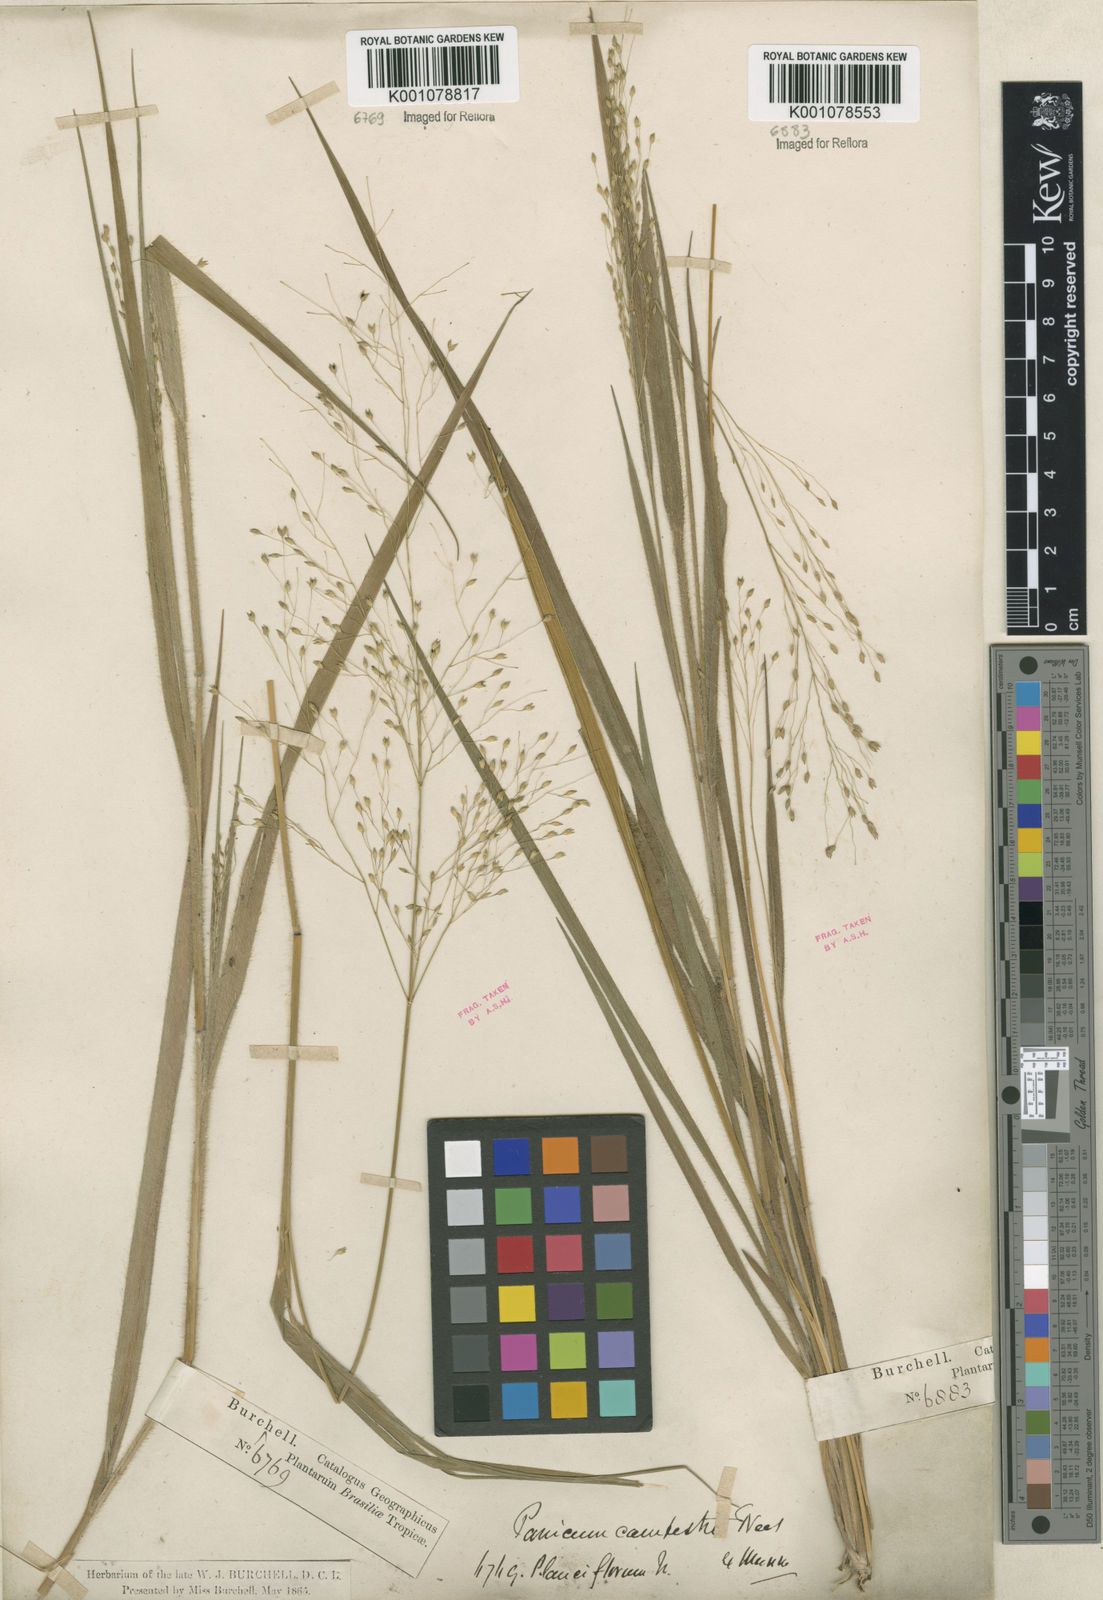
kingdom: Plantae
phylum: Tracheophyta
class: Liliopsida
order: Poales
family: Poaceae
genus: Panicum
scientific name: Panicum
